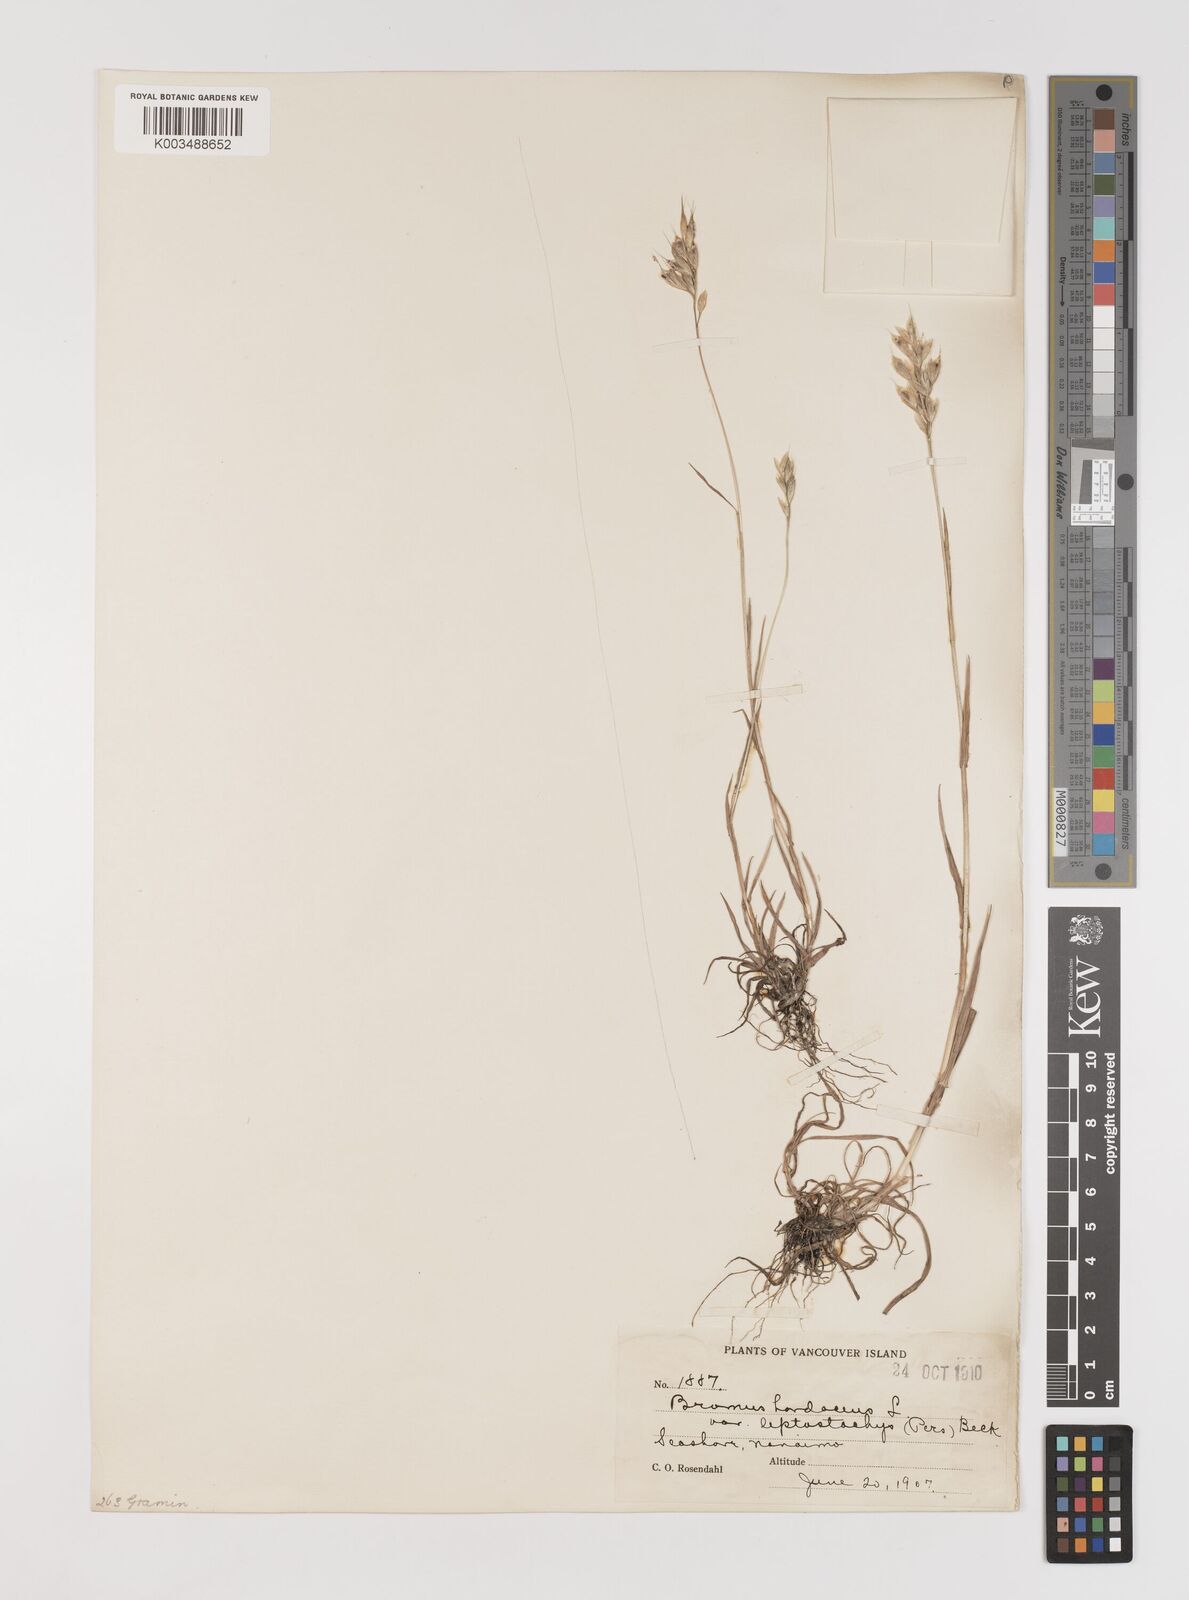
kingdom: Plantae
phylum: Tracheophyta
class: Liliopsida
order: Poales
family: Poaceae
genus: Bromus
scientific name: Bromus hordeaceus
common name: Soft brome
